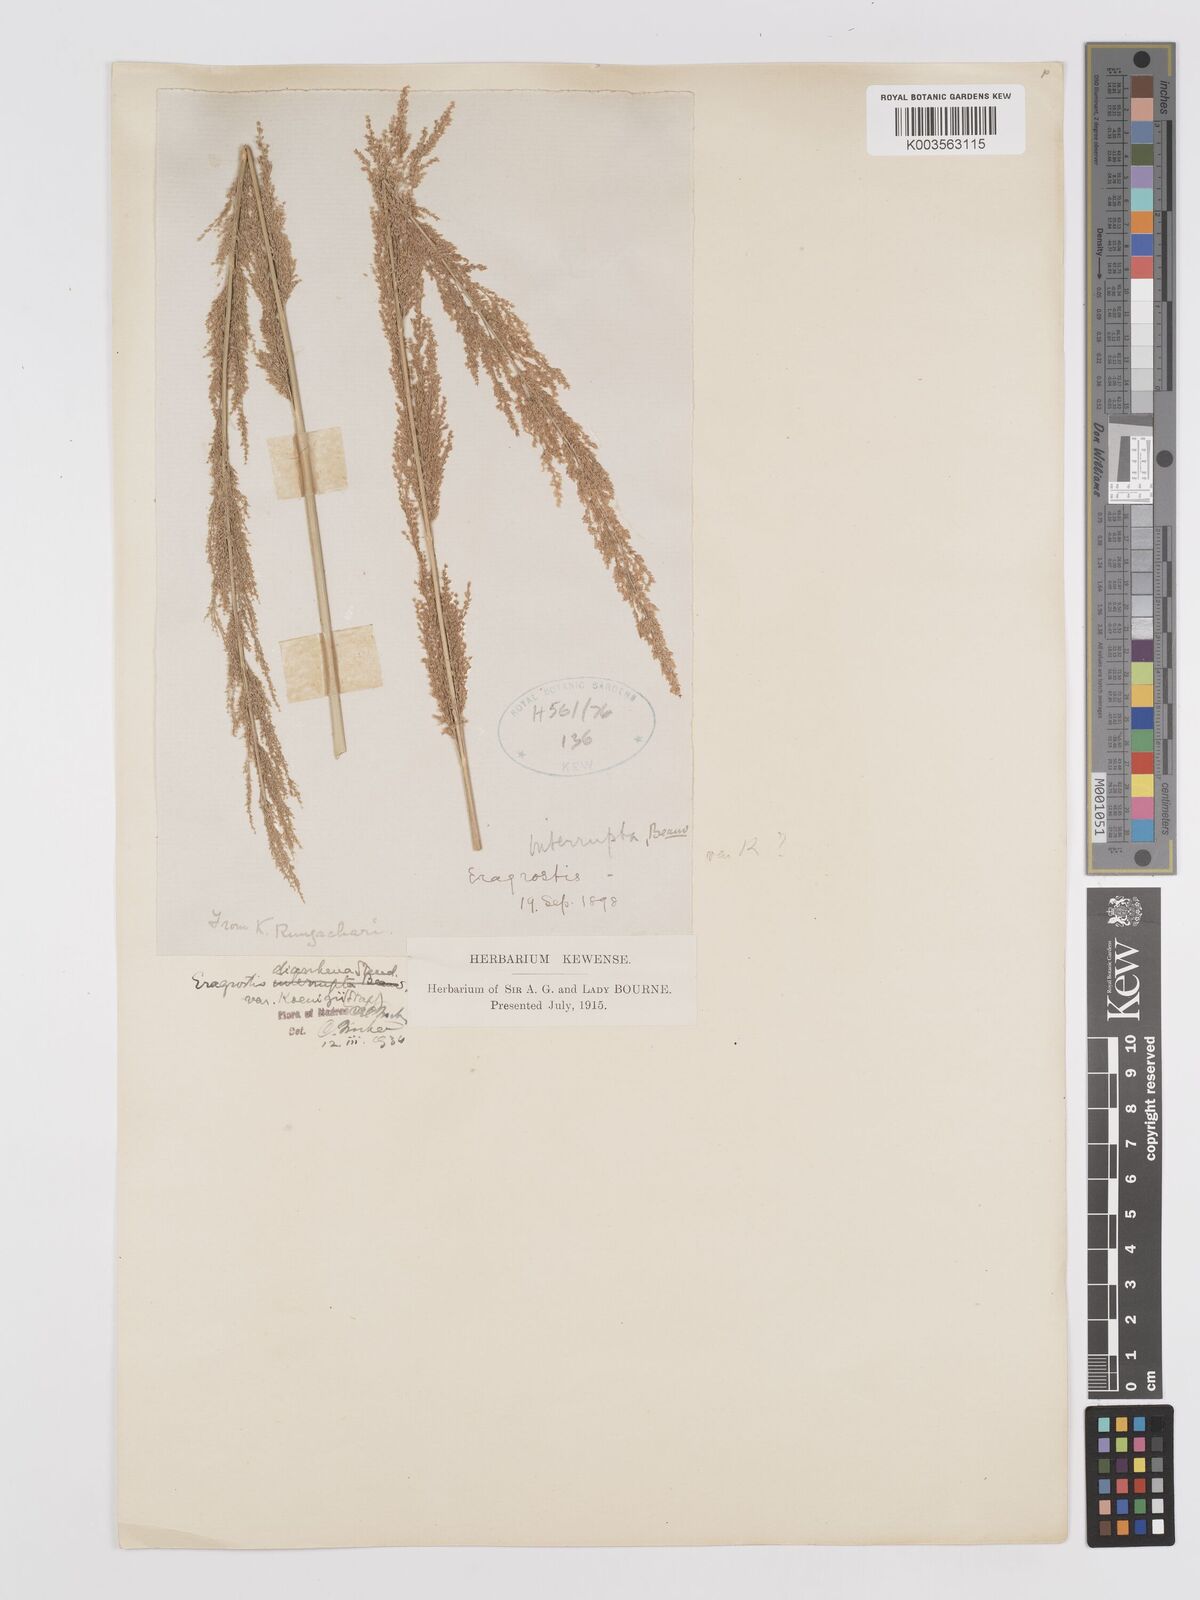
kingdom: Plantae
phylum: Tracheophyta
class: Liliopsida
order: Poales
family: Poaceae
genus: Eragrostis
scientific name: Eragrostis japonica
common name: Pond lovegrass
